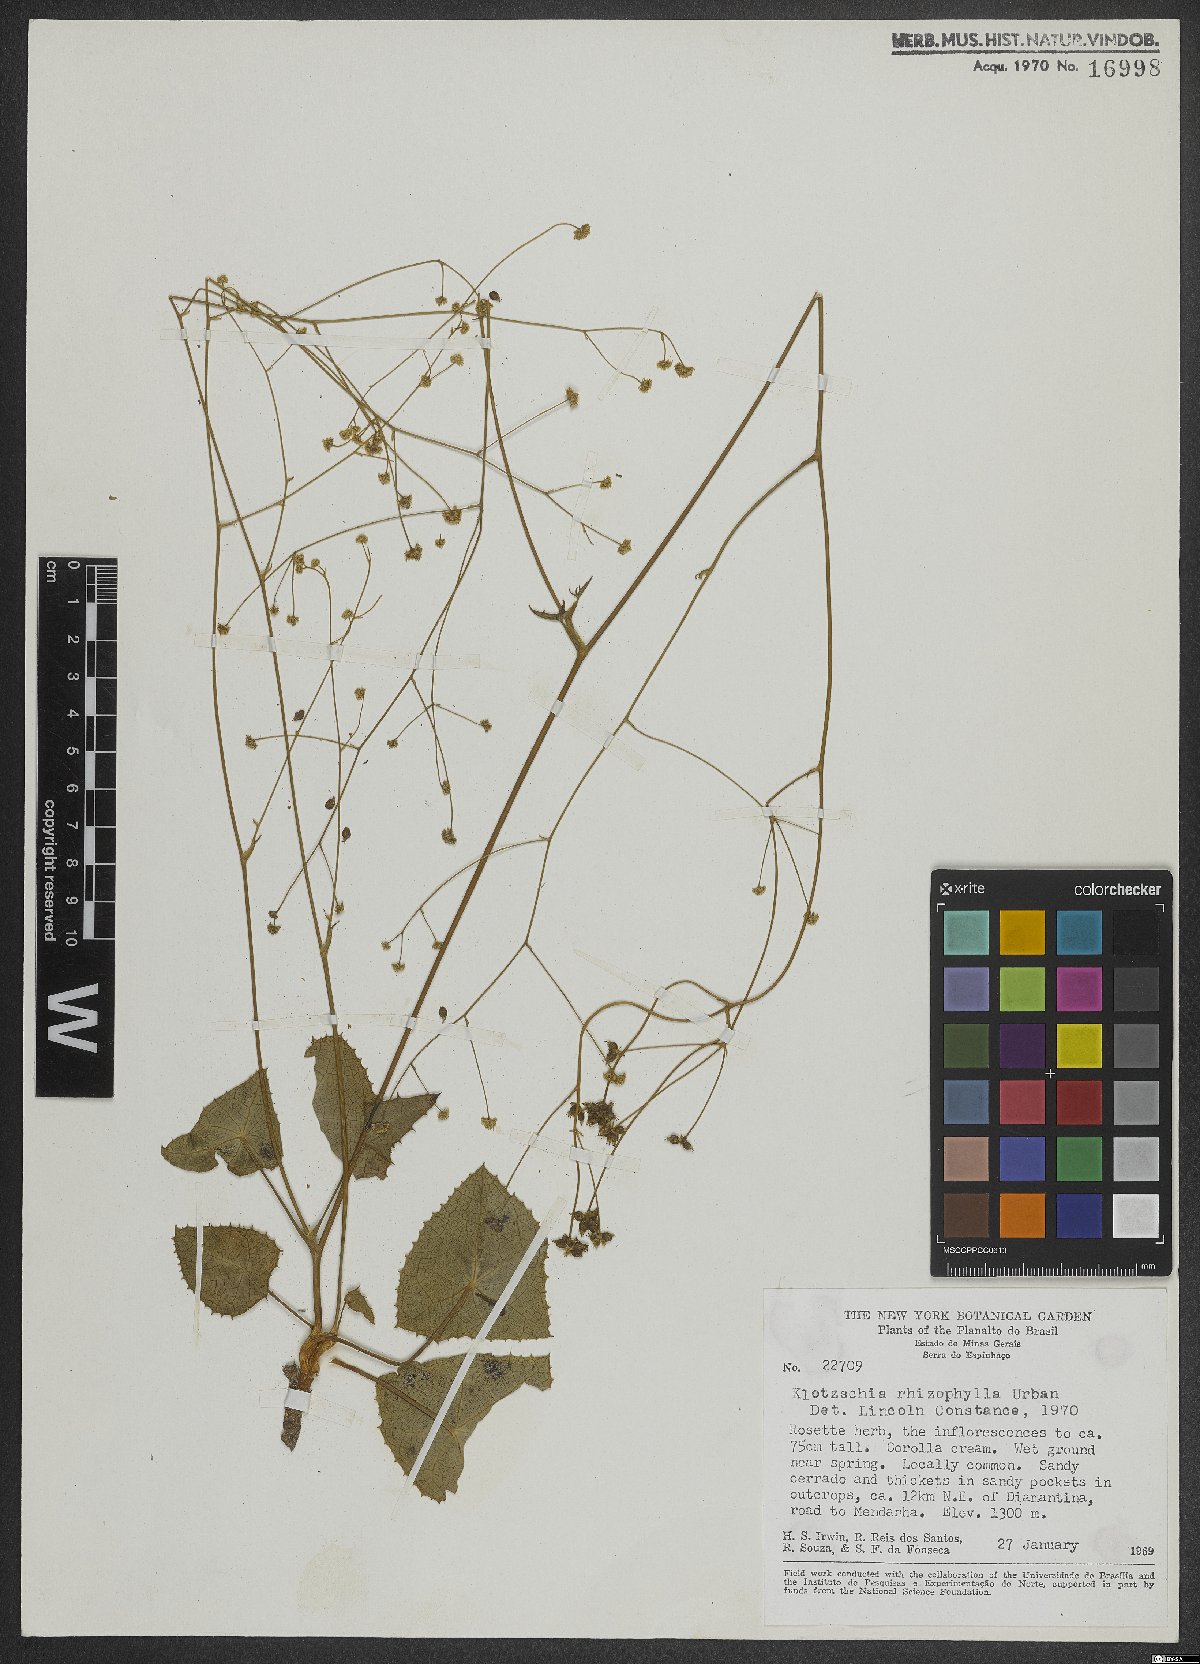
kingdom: Plantae
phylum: Tracheophyta
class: Magnoliopsida
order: Apiales
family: Apiaceae
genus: Klotzschia
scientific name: Klotzschia rhizophylla
